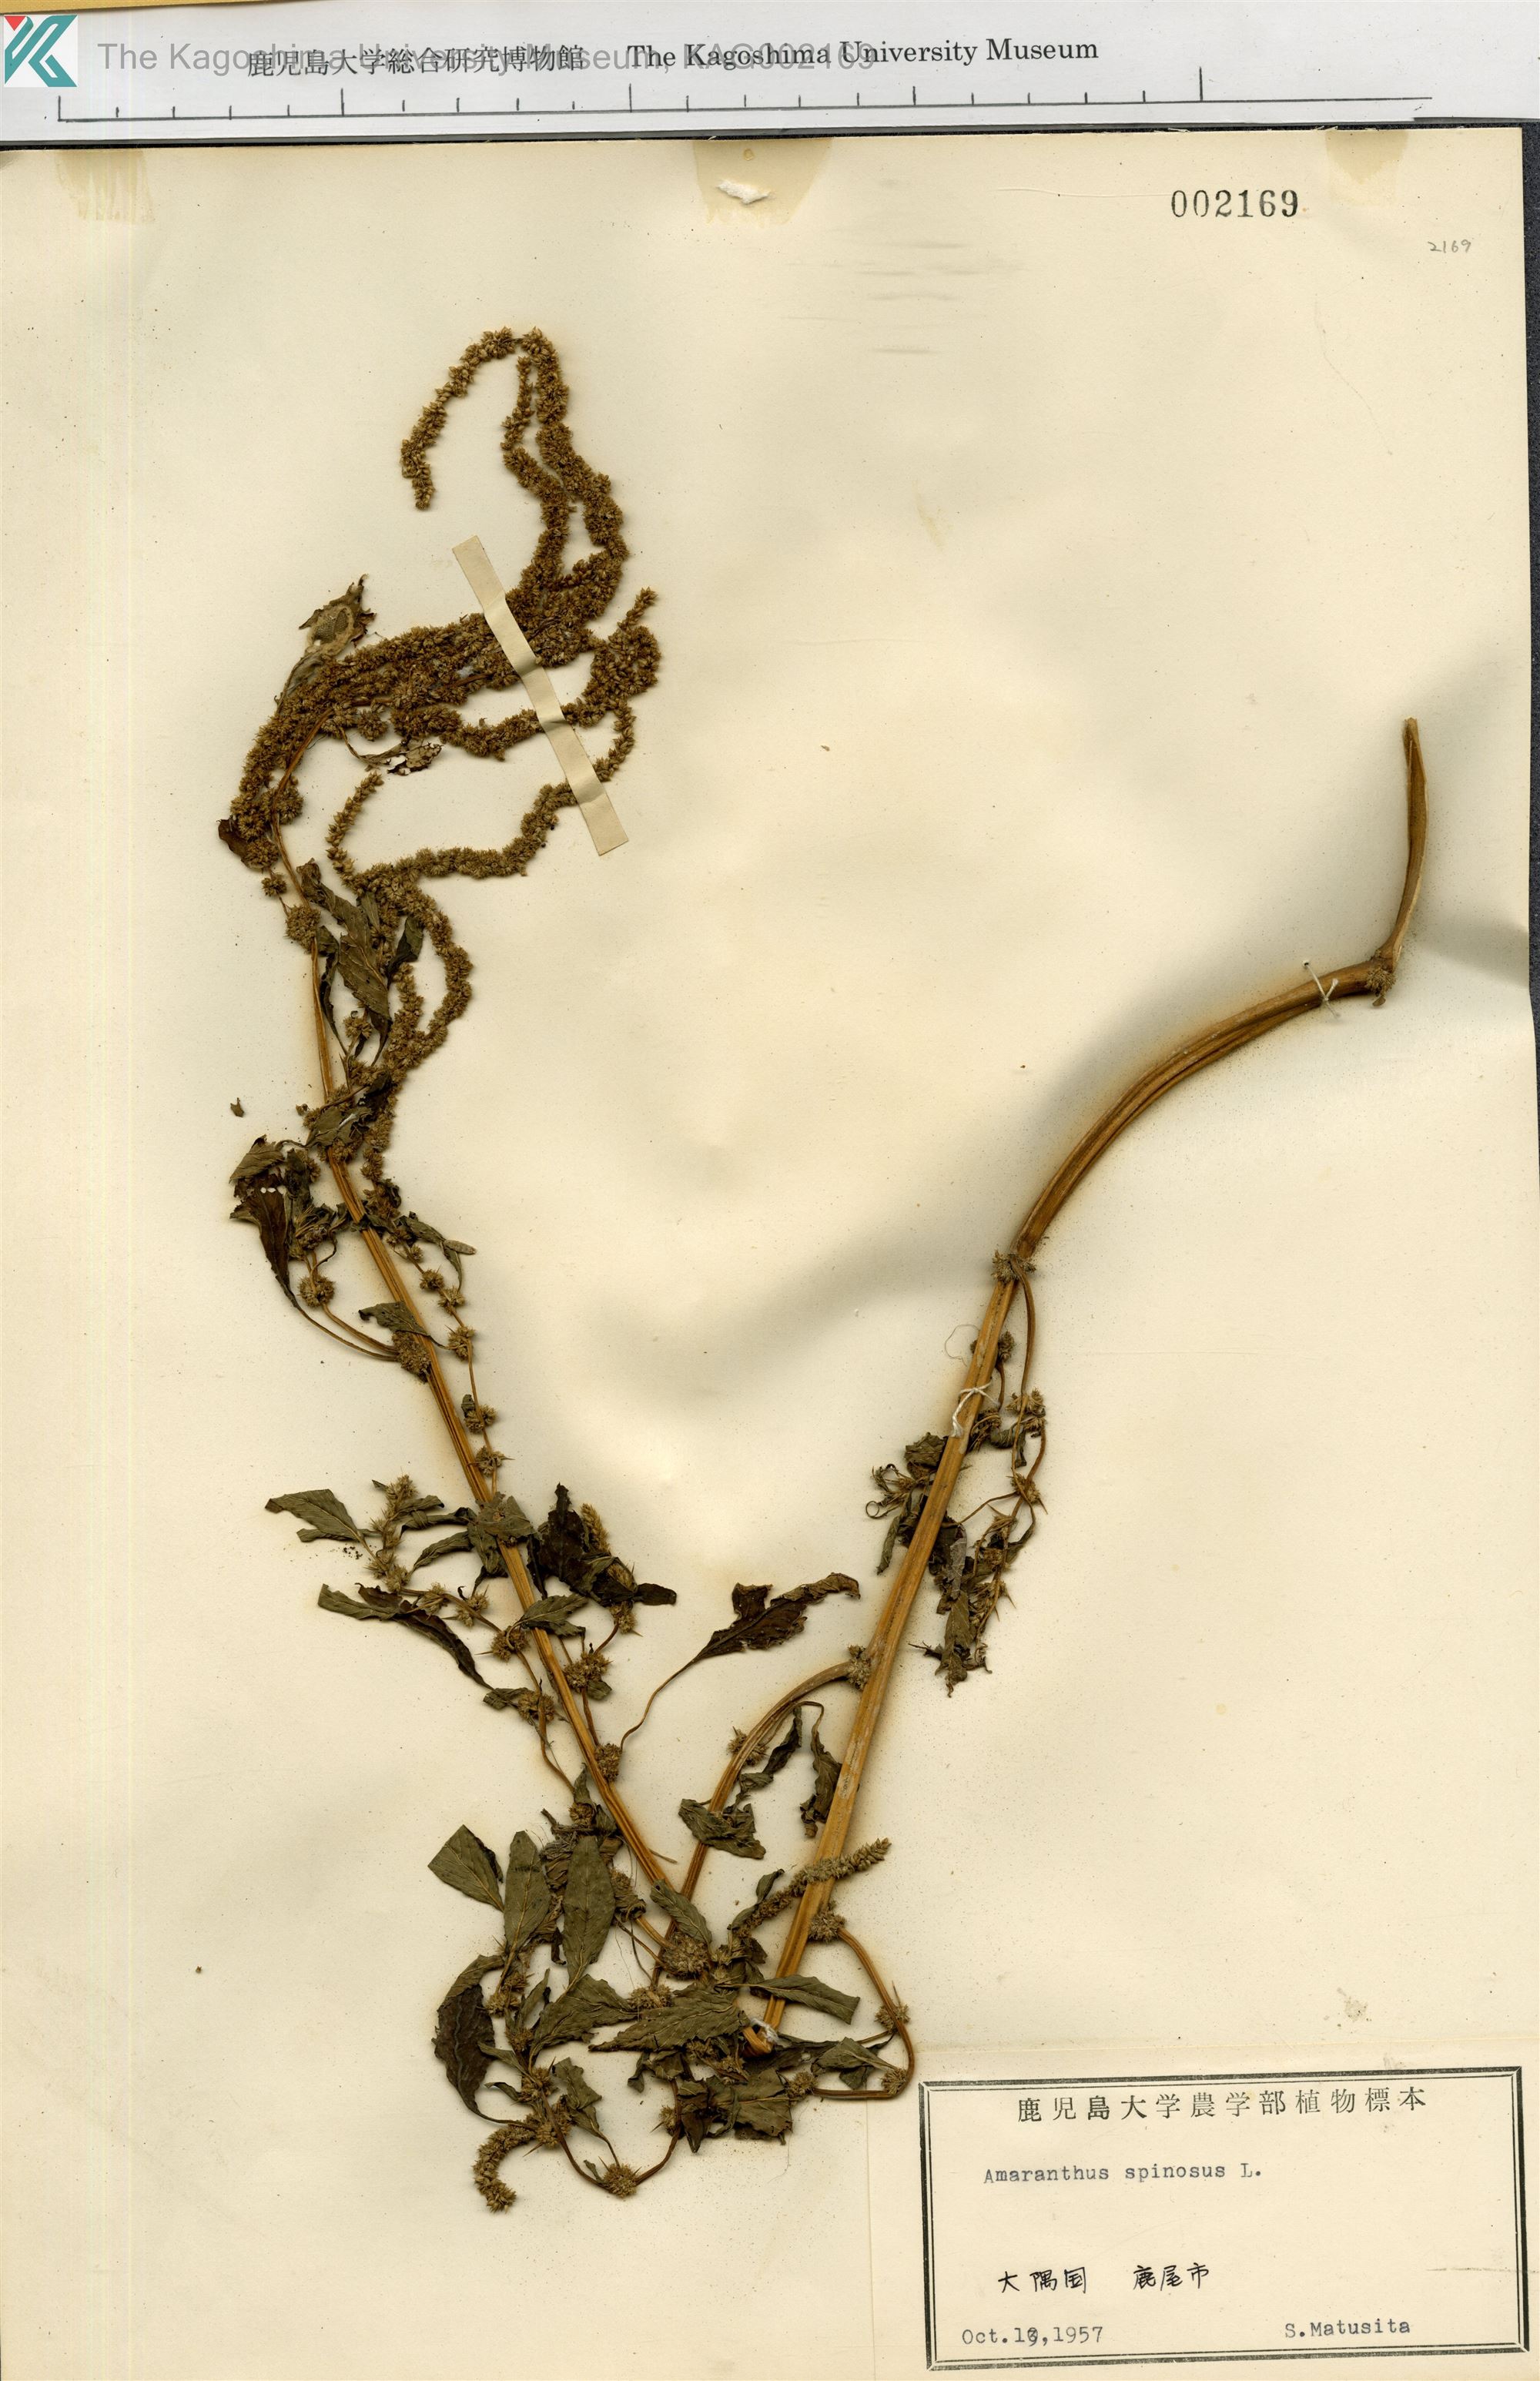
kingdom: Plantae
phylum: Tracheophyta
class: Magnoliopsida
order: Caryophyllales
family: Amaranthaceae
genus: Amaranthus
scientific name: Amaranthus spinosus
